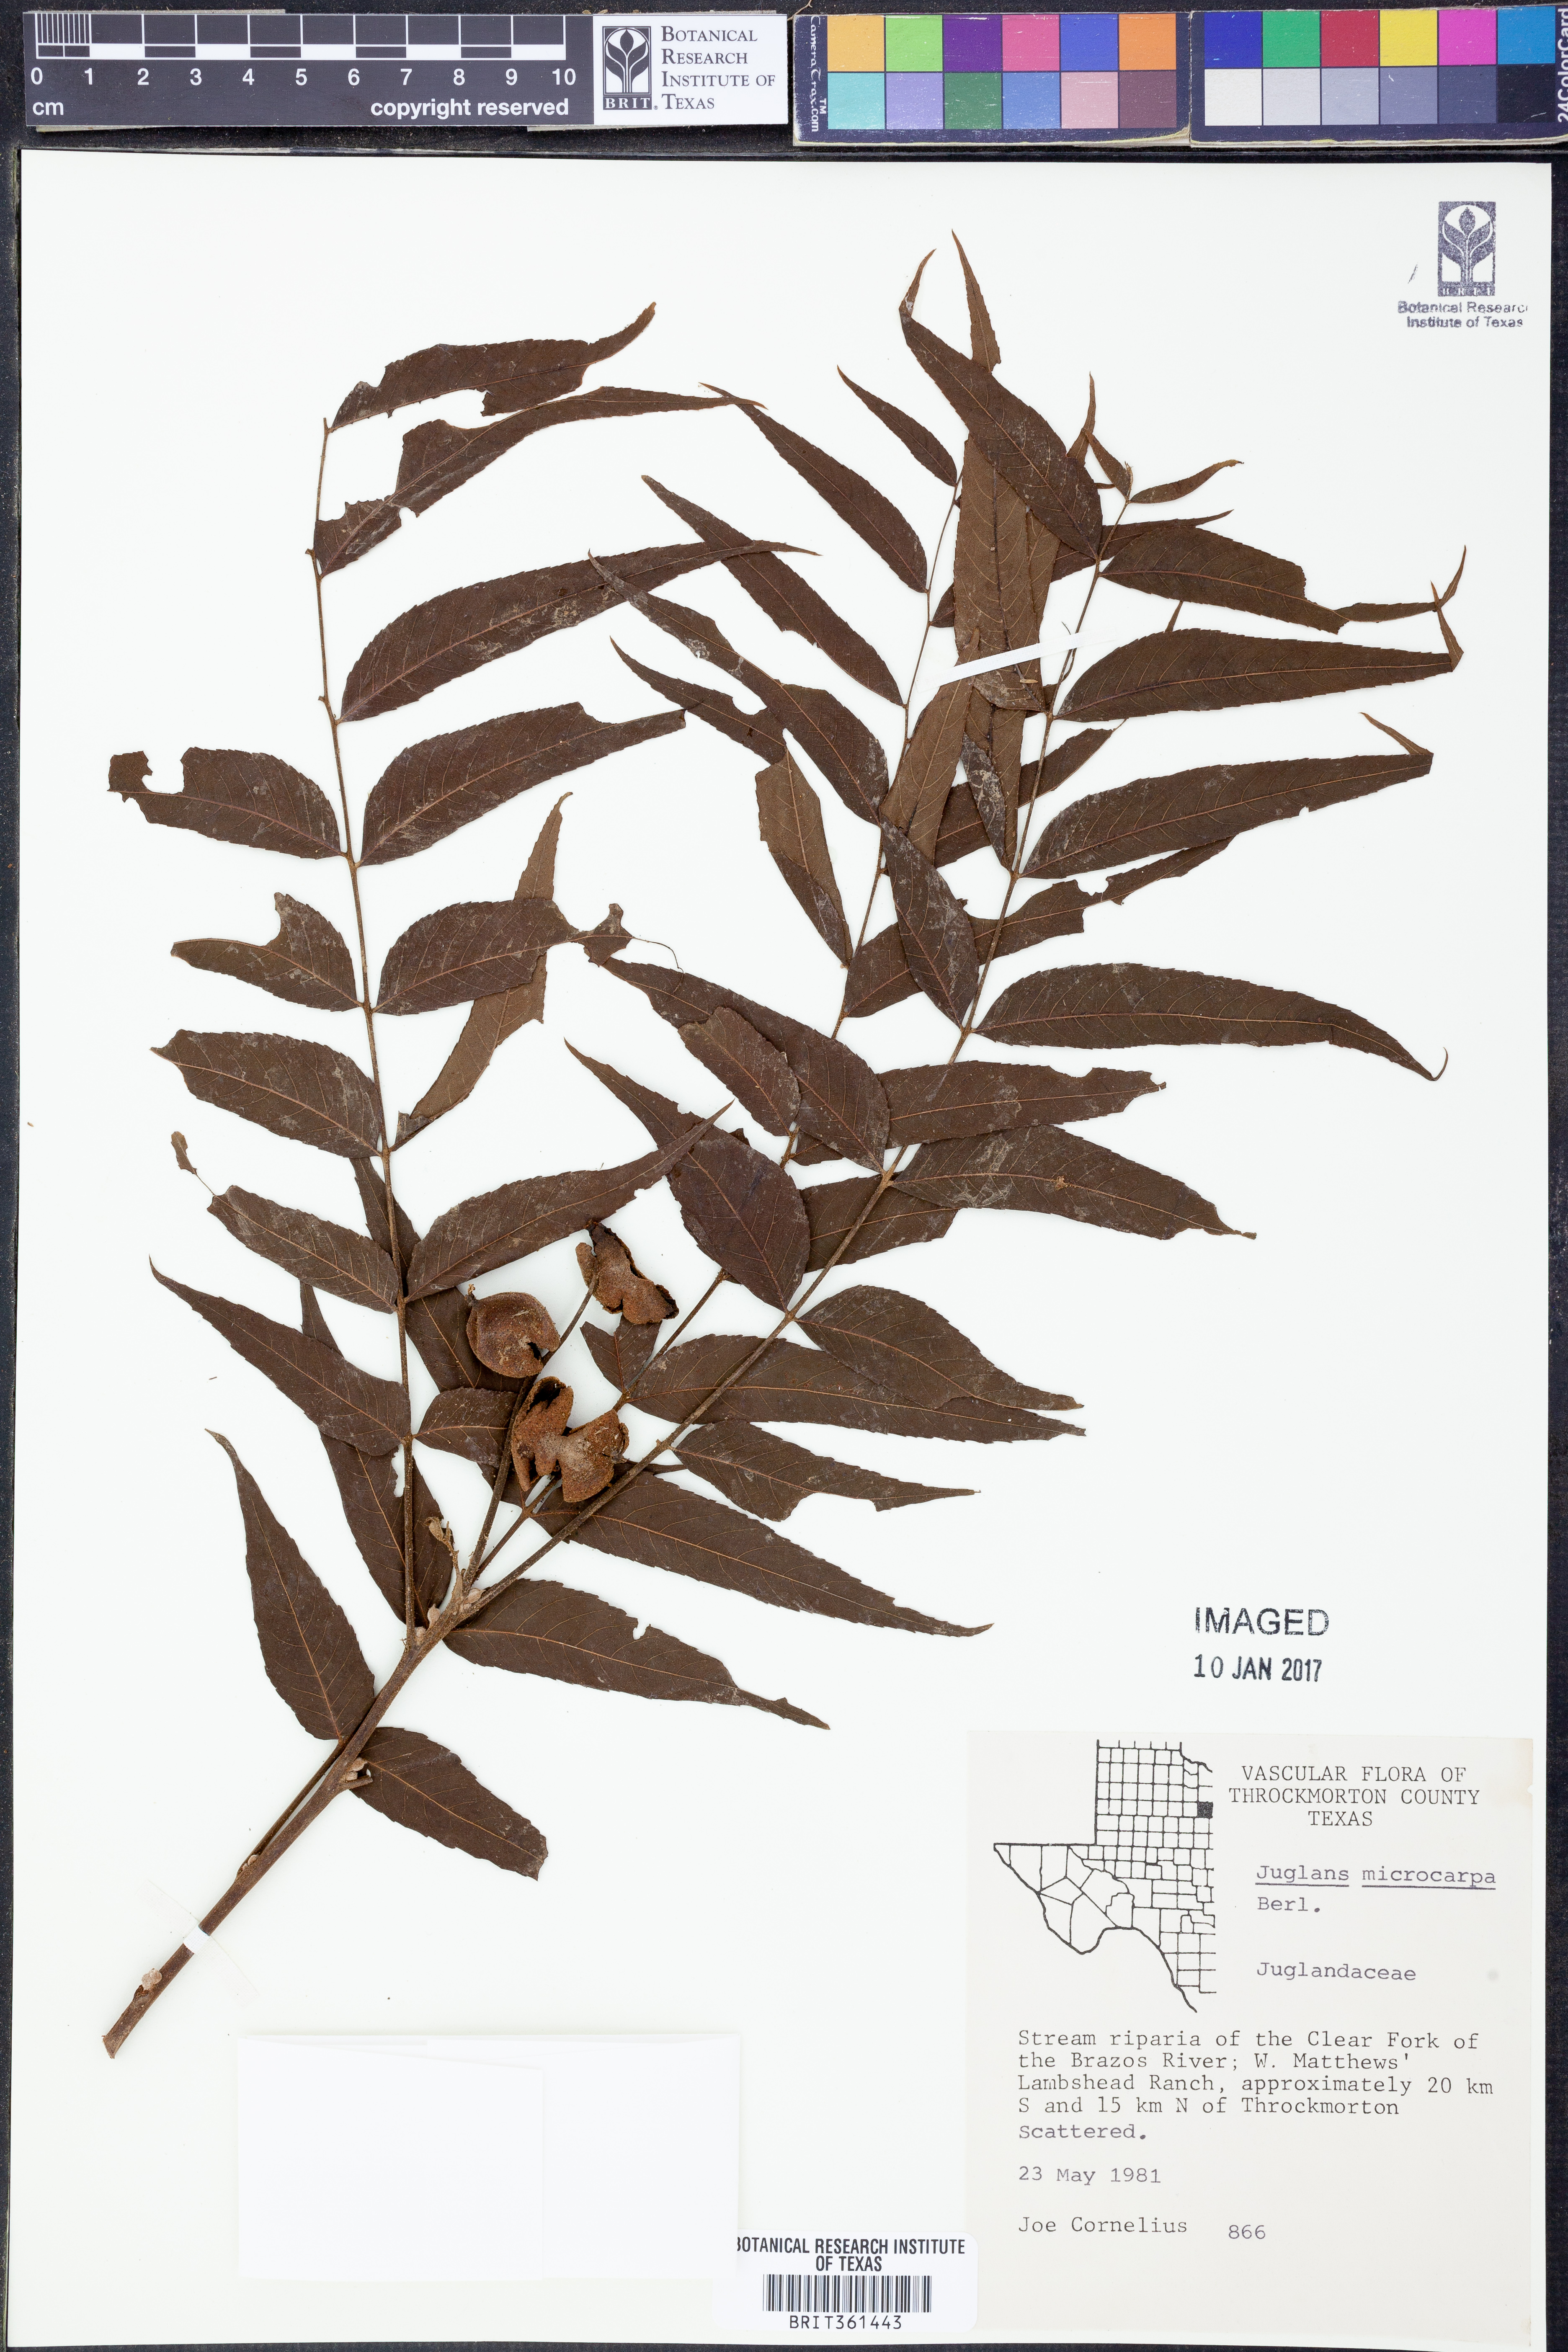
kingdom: Plantae
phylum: Tracheophyta
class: Magnoliopsida
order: Fagales
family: Juglandaceae
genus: Juglans
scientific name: Juglans microcarpa
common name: Texas walnut
